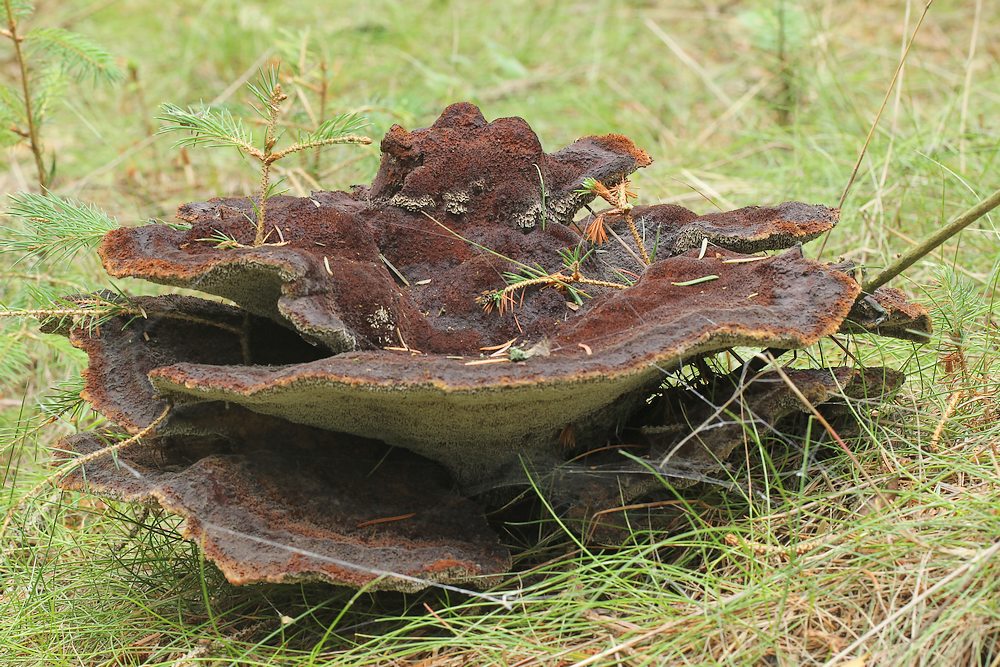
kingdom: Fungi
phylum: Basidiomycota
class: Agaricomycetes
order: Polyporales
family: Laetiporaceae
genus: Phaeolus
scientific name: Phaeolus schweinitzii
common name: brunporesvamp
